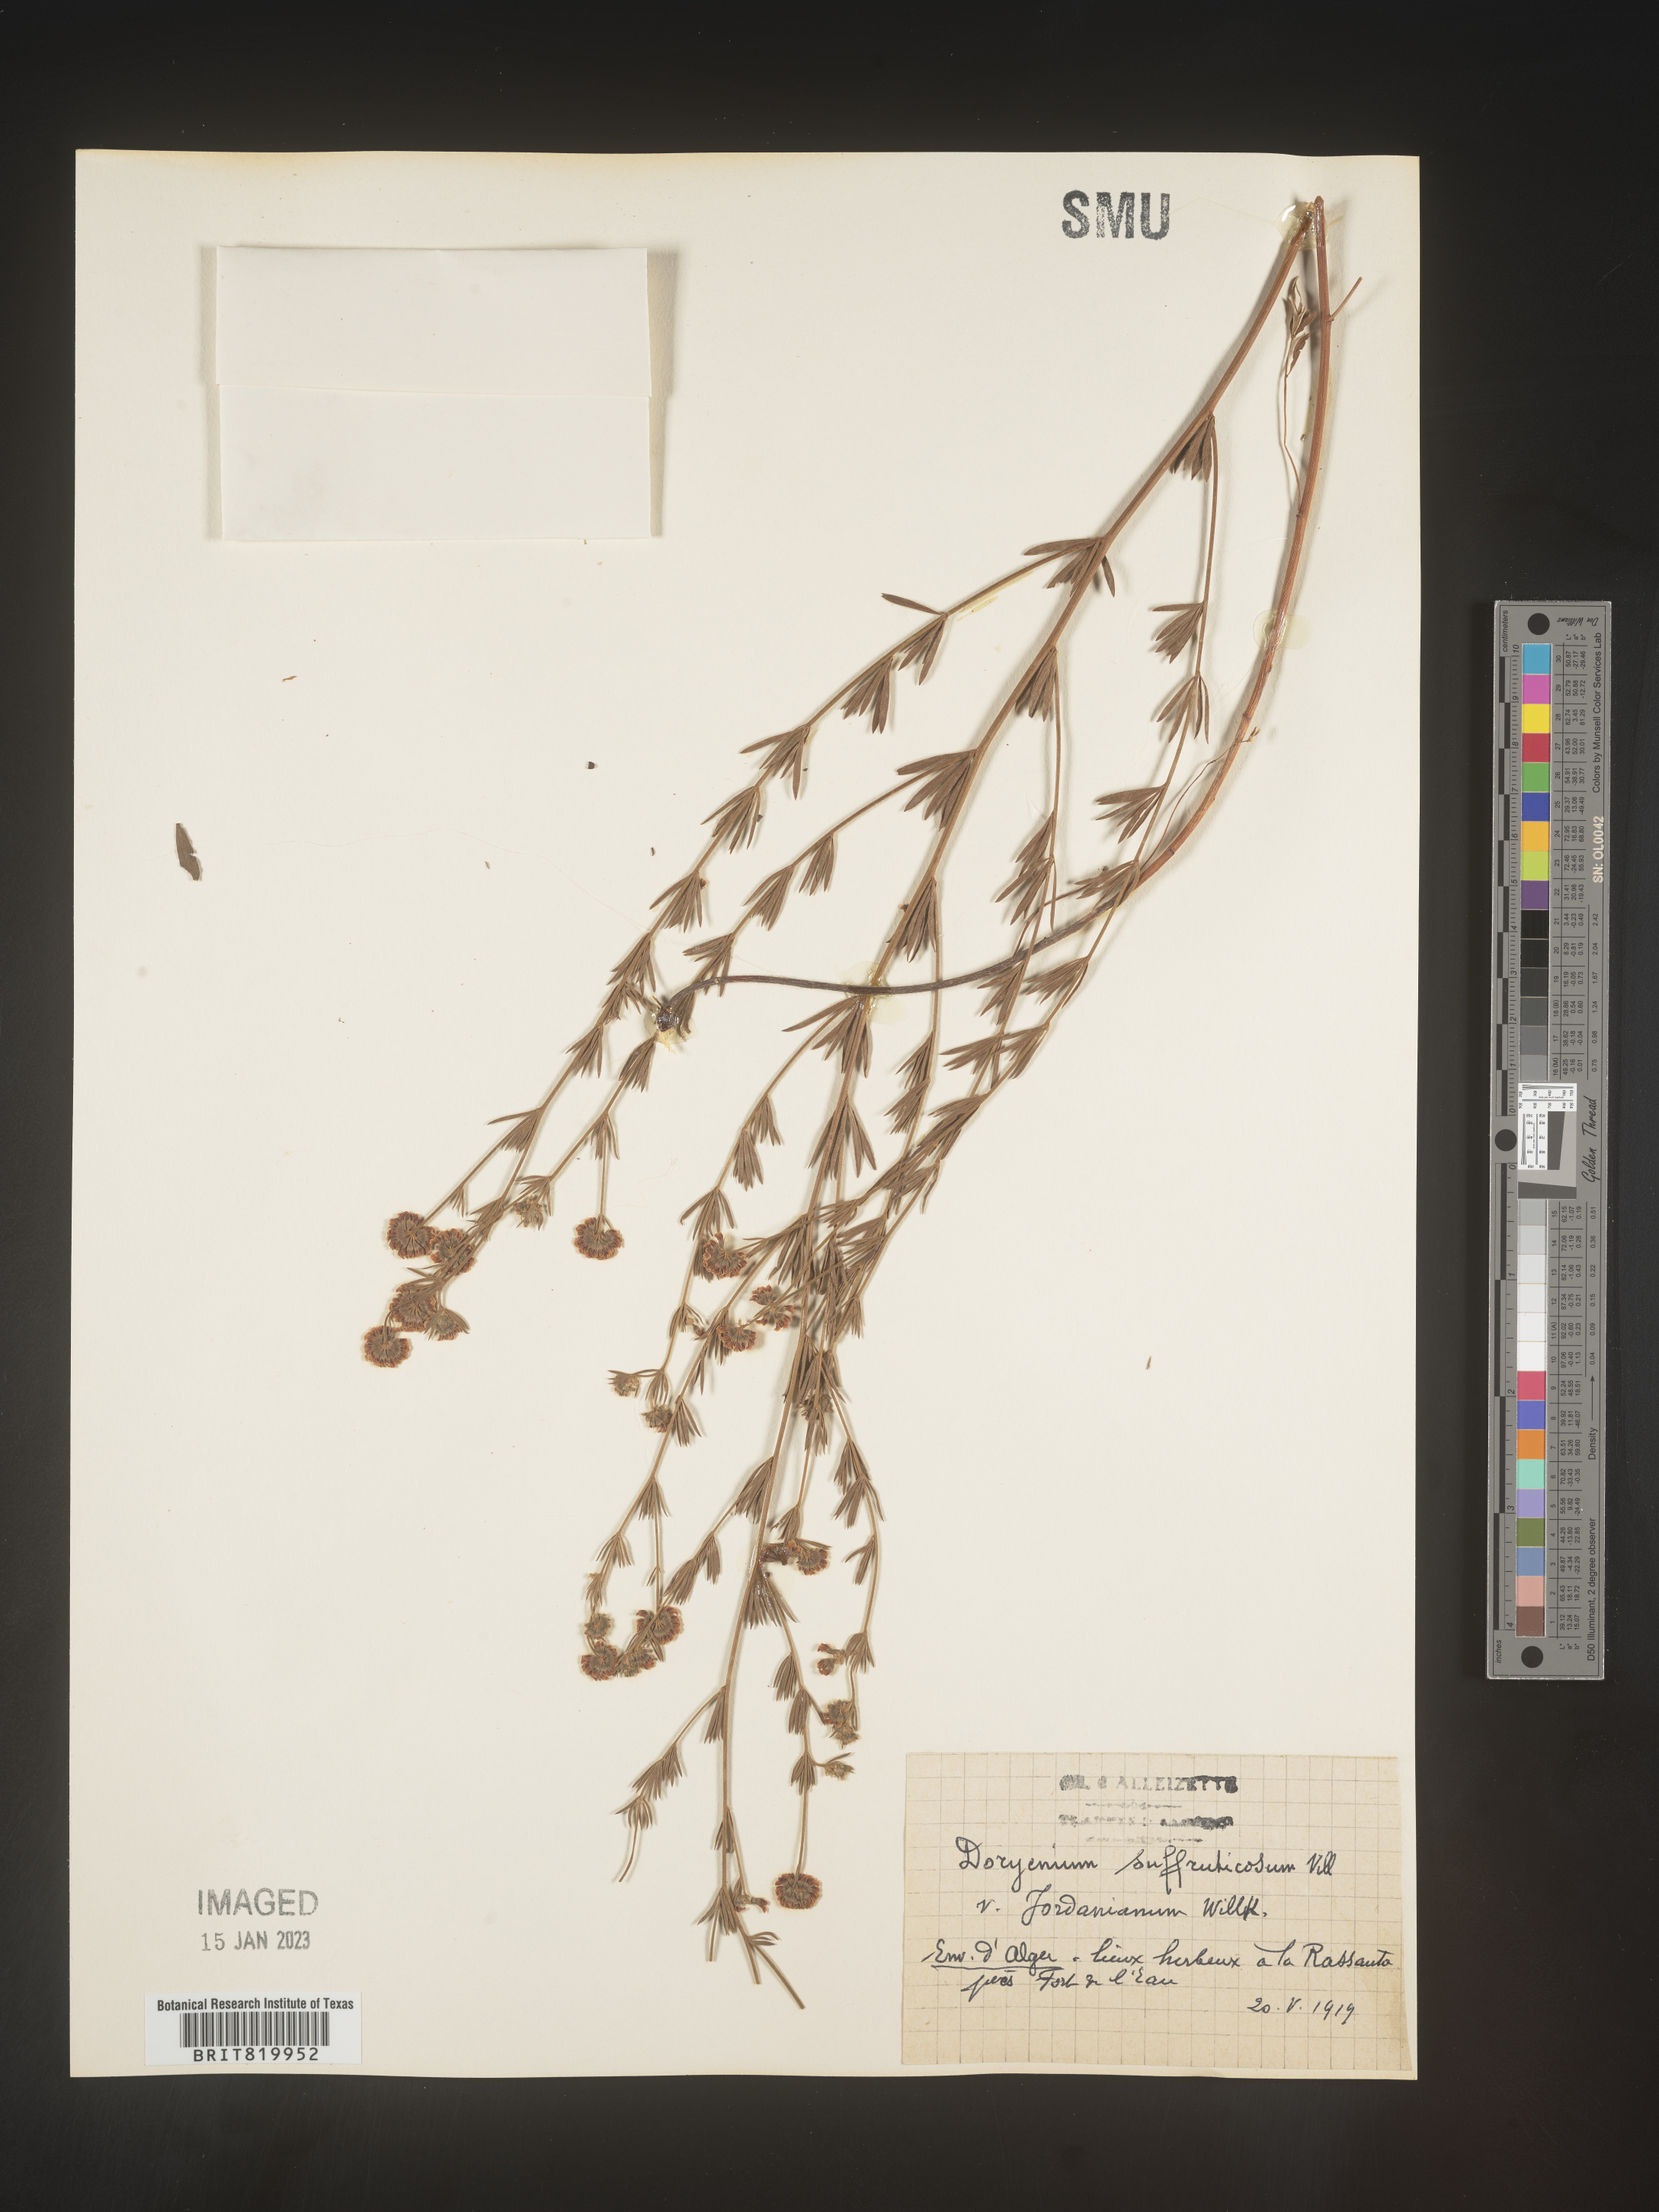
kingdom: Plantae
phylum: Tracheophyta
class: Magnoliopsida
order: Fabales
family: Fabaceae
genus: Lotus
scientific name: Lotus
